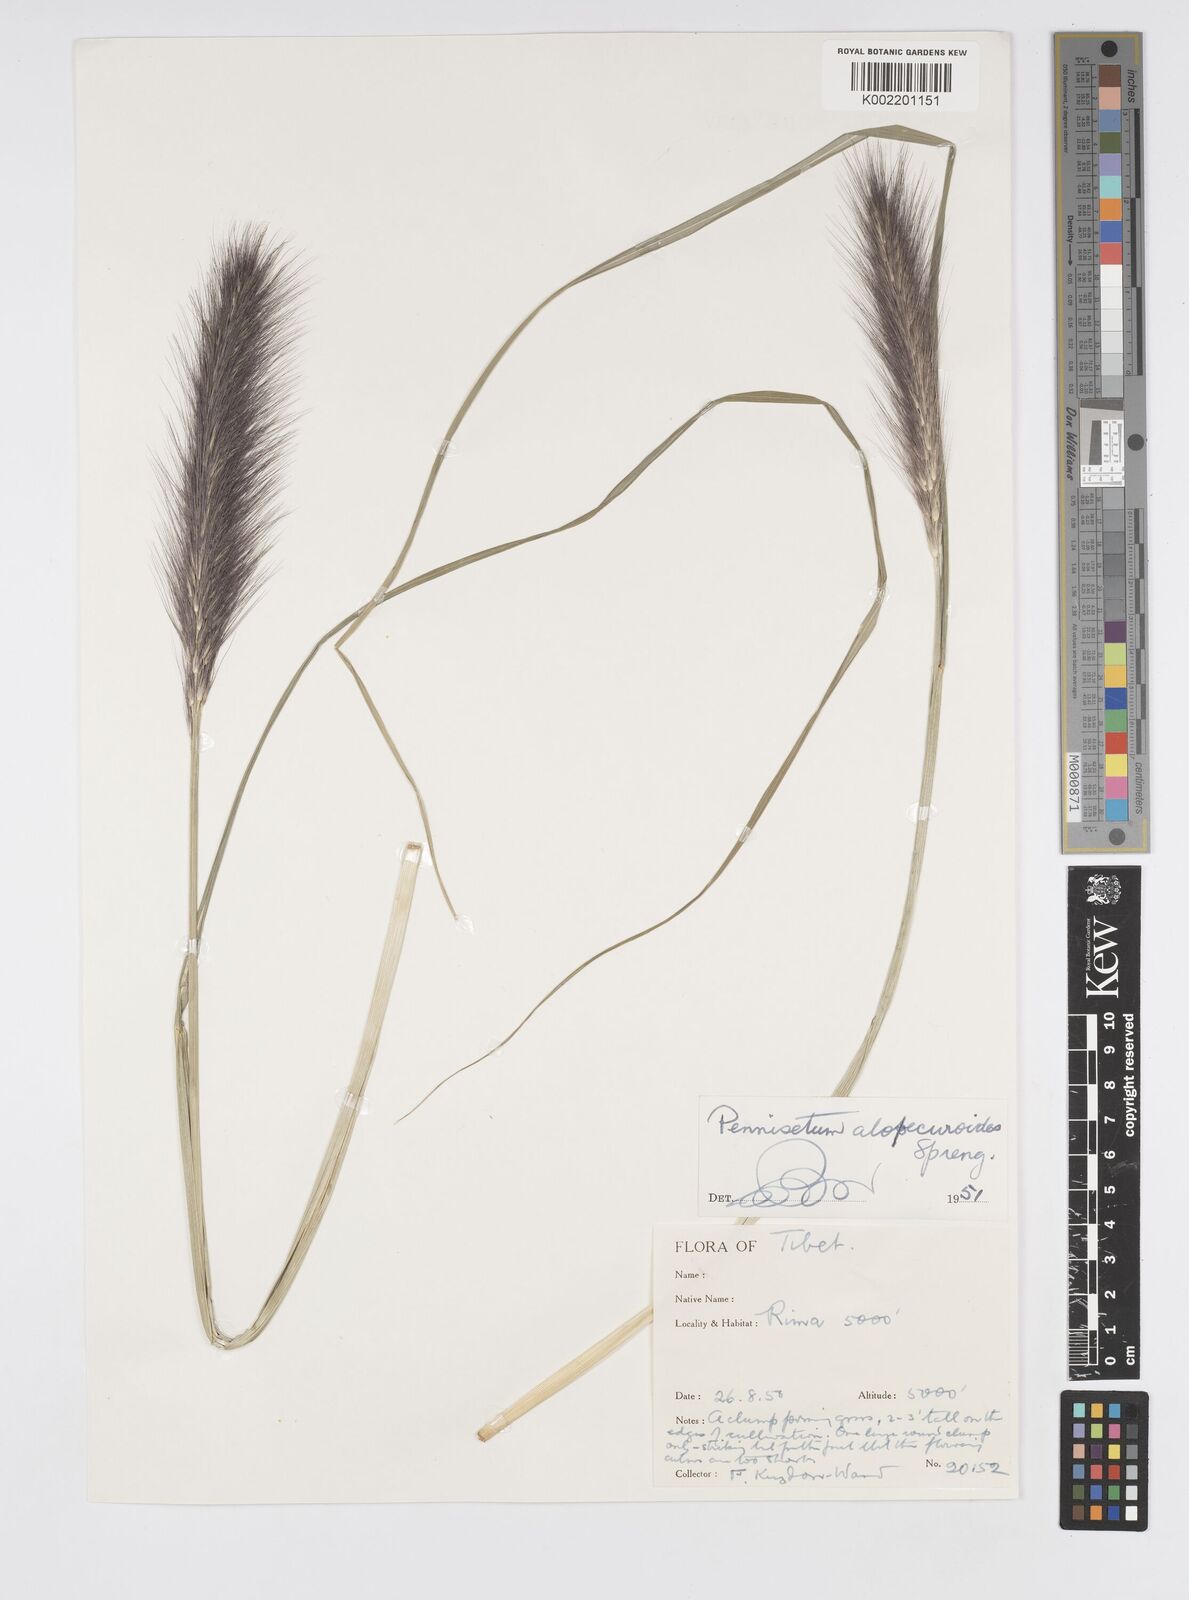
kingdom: Plantae
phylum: Tracheophyta
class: Liliopsida
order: Poales
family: Poaceae
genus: Cenchrus
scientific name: Cenchrus alopecuroides
